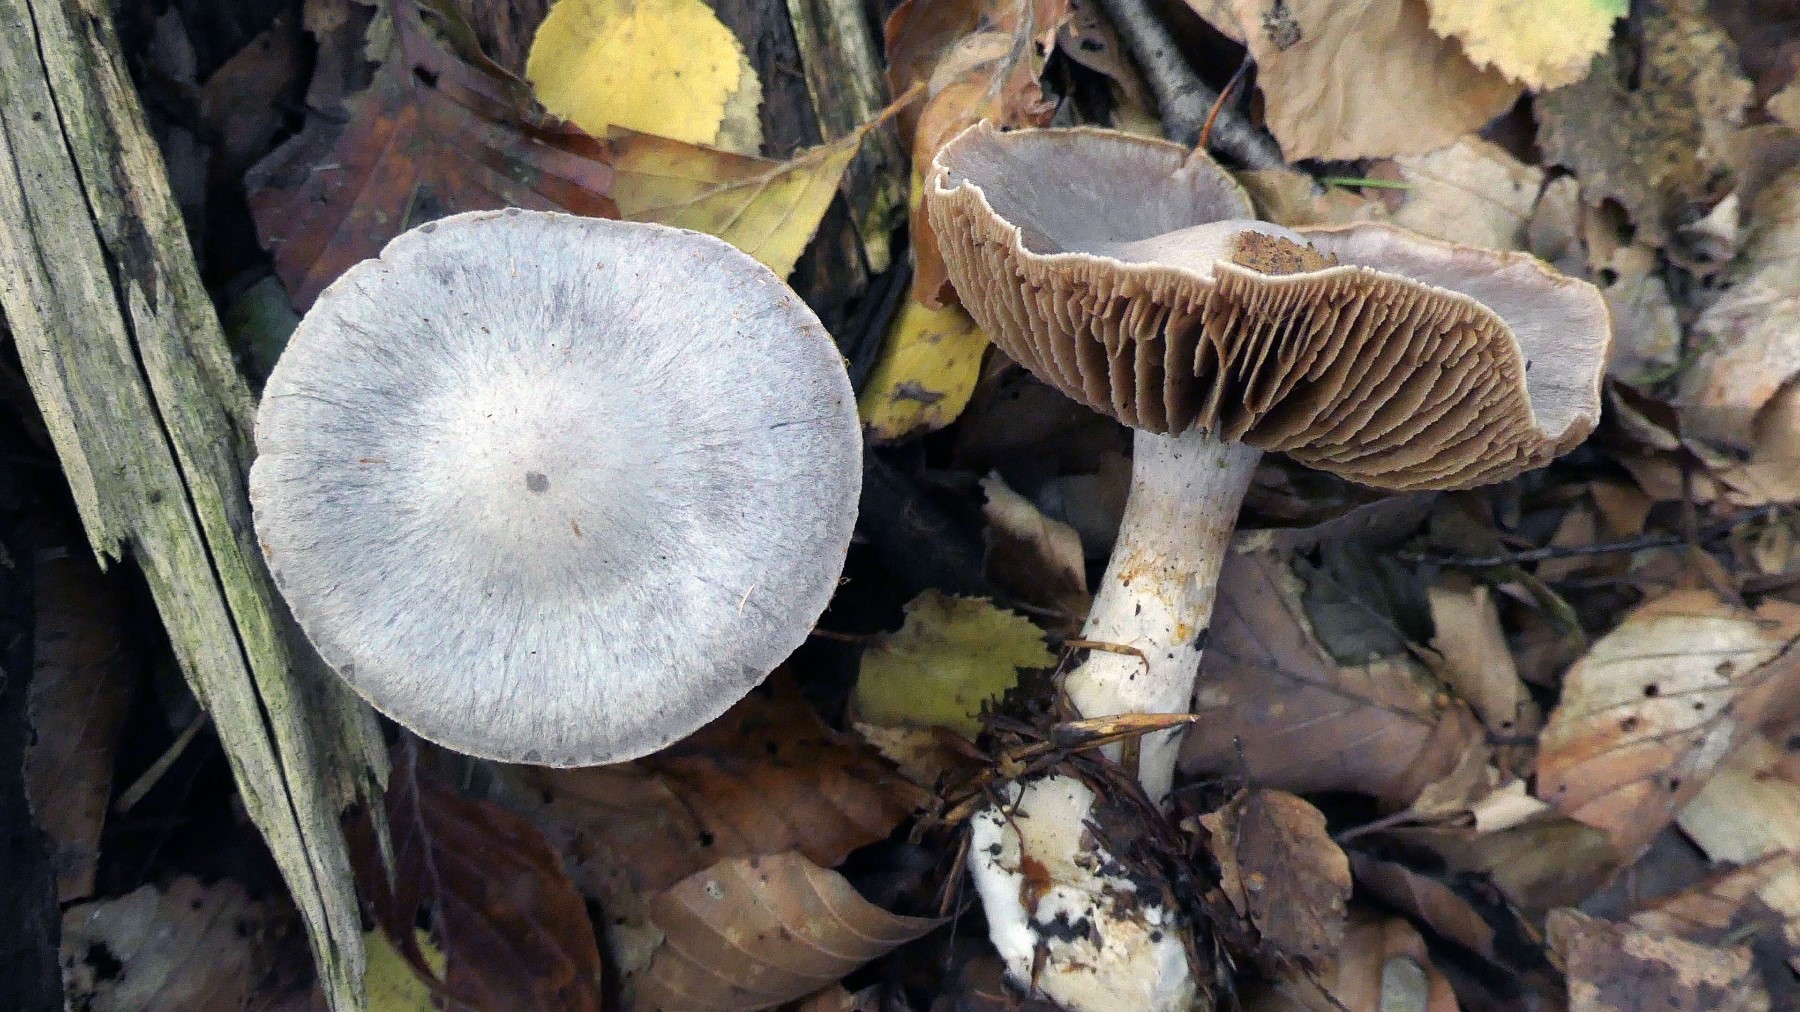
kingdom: Fungi
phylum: Basidiomycota
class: Agaricomycetes
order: Agaricales
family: Cortinariaceae
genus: Cortinarius
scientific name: Cortinarius alboviolaceus
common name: lysviolet slørhat
